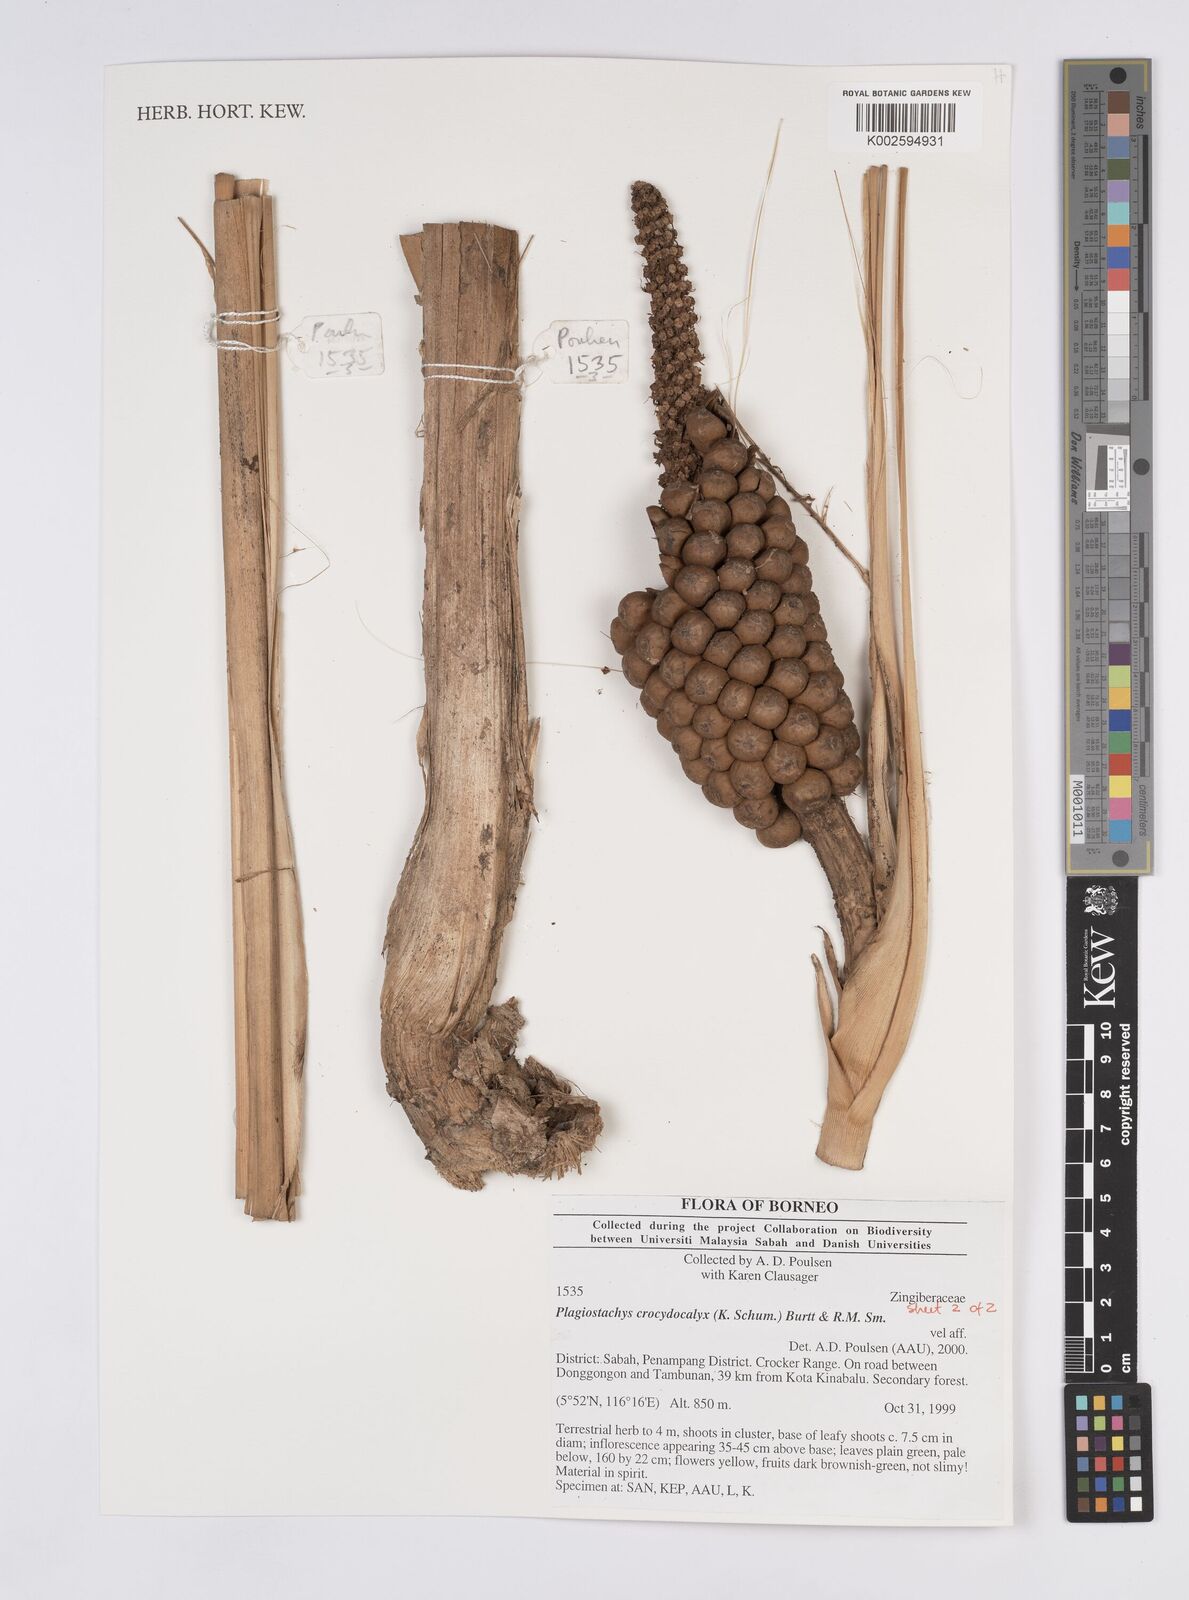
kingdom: Plantae
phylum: Tracheophyta
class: Liliopsida
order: Zingiberales
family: Zingiberaceae
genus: Plagiostachys
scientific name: Plagiostachys crocydocalyx
